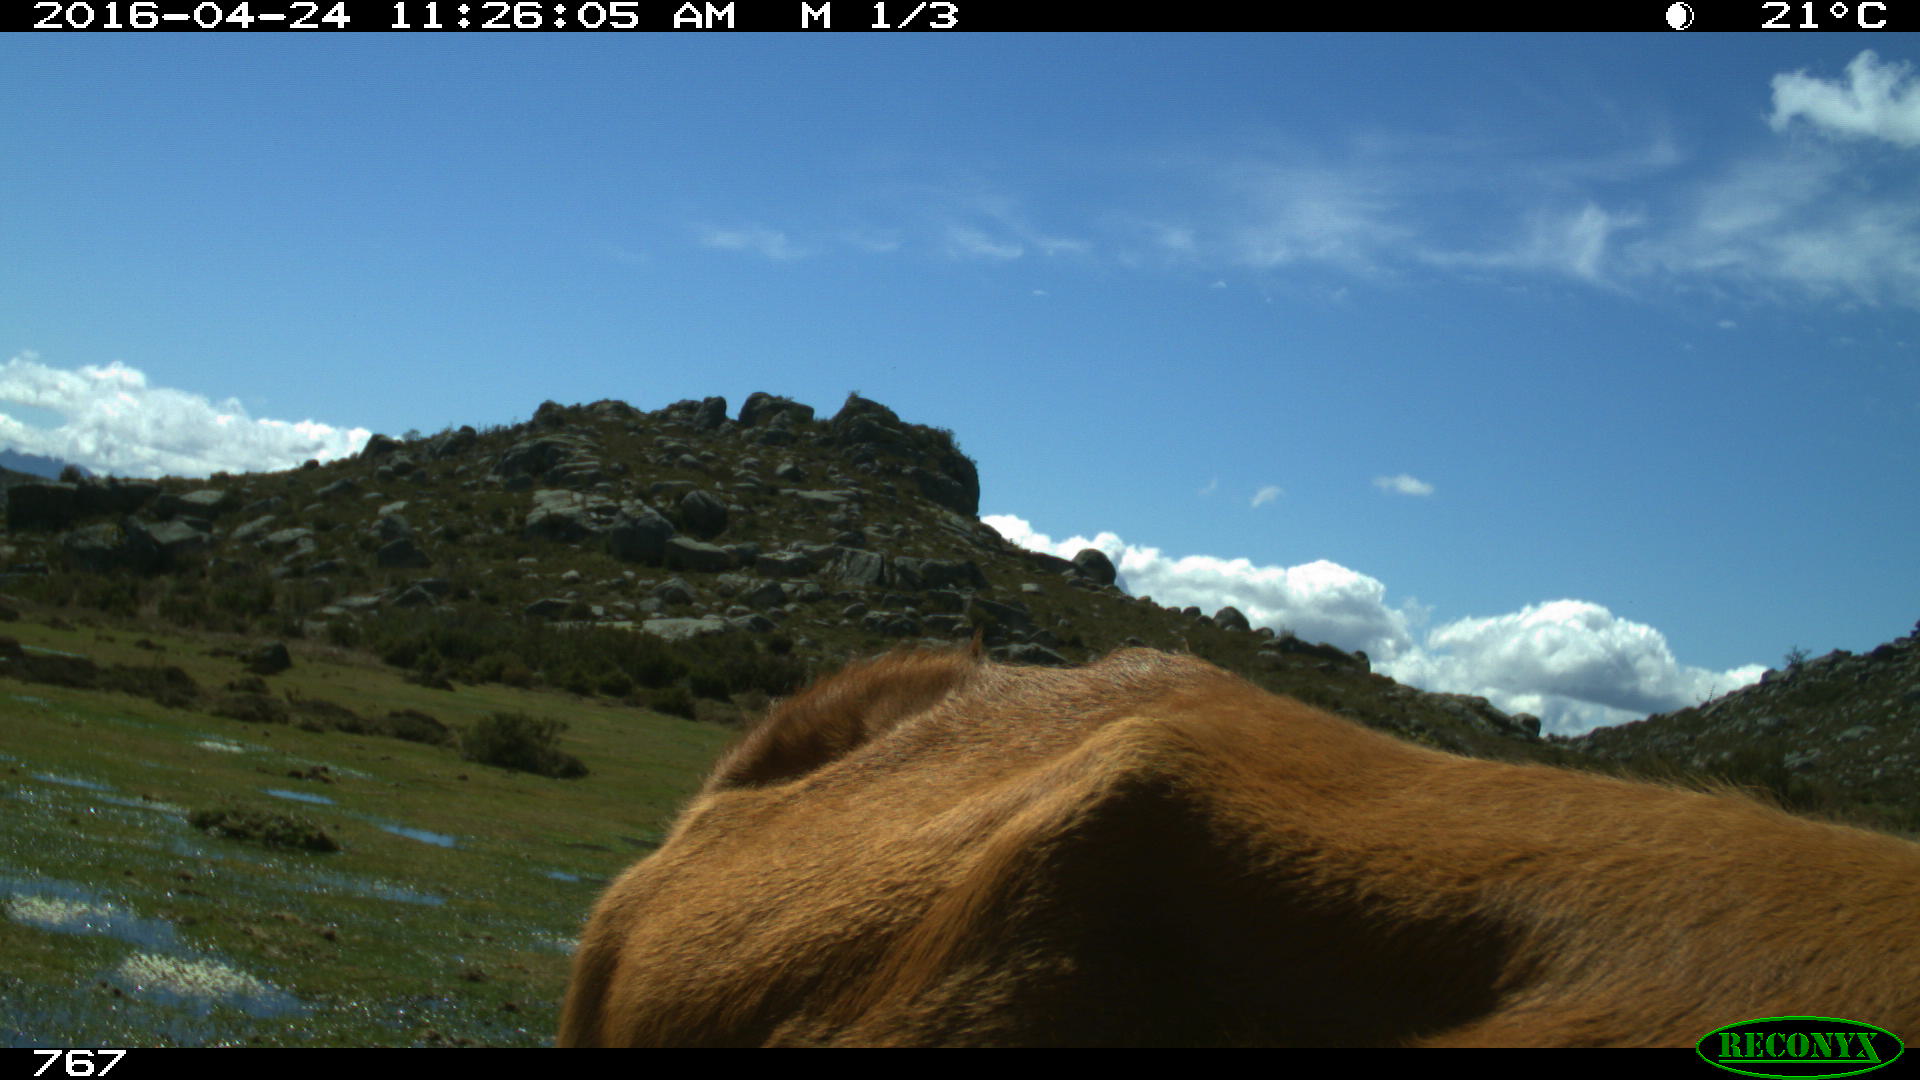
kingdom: Animalia
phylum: Chordata
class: Mammalia
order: Artiodactyla
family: Bovidae
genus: Bos
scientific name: Bos taurus
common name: Domesticated cattle
